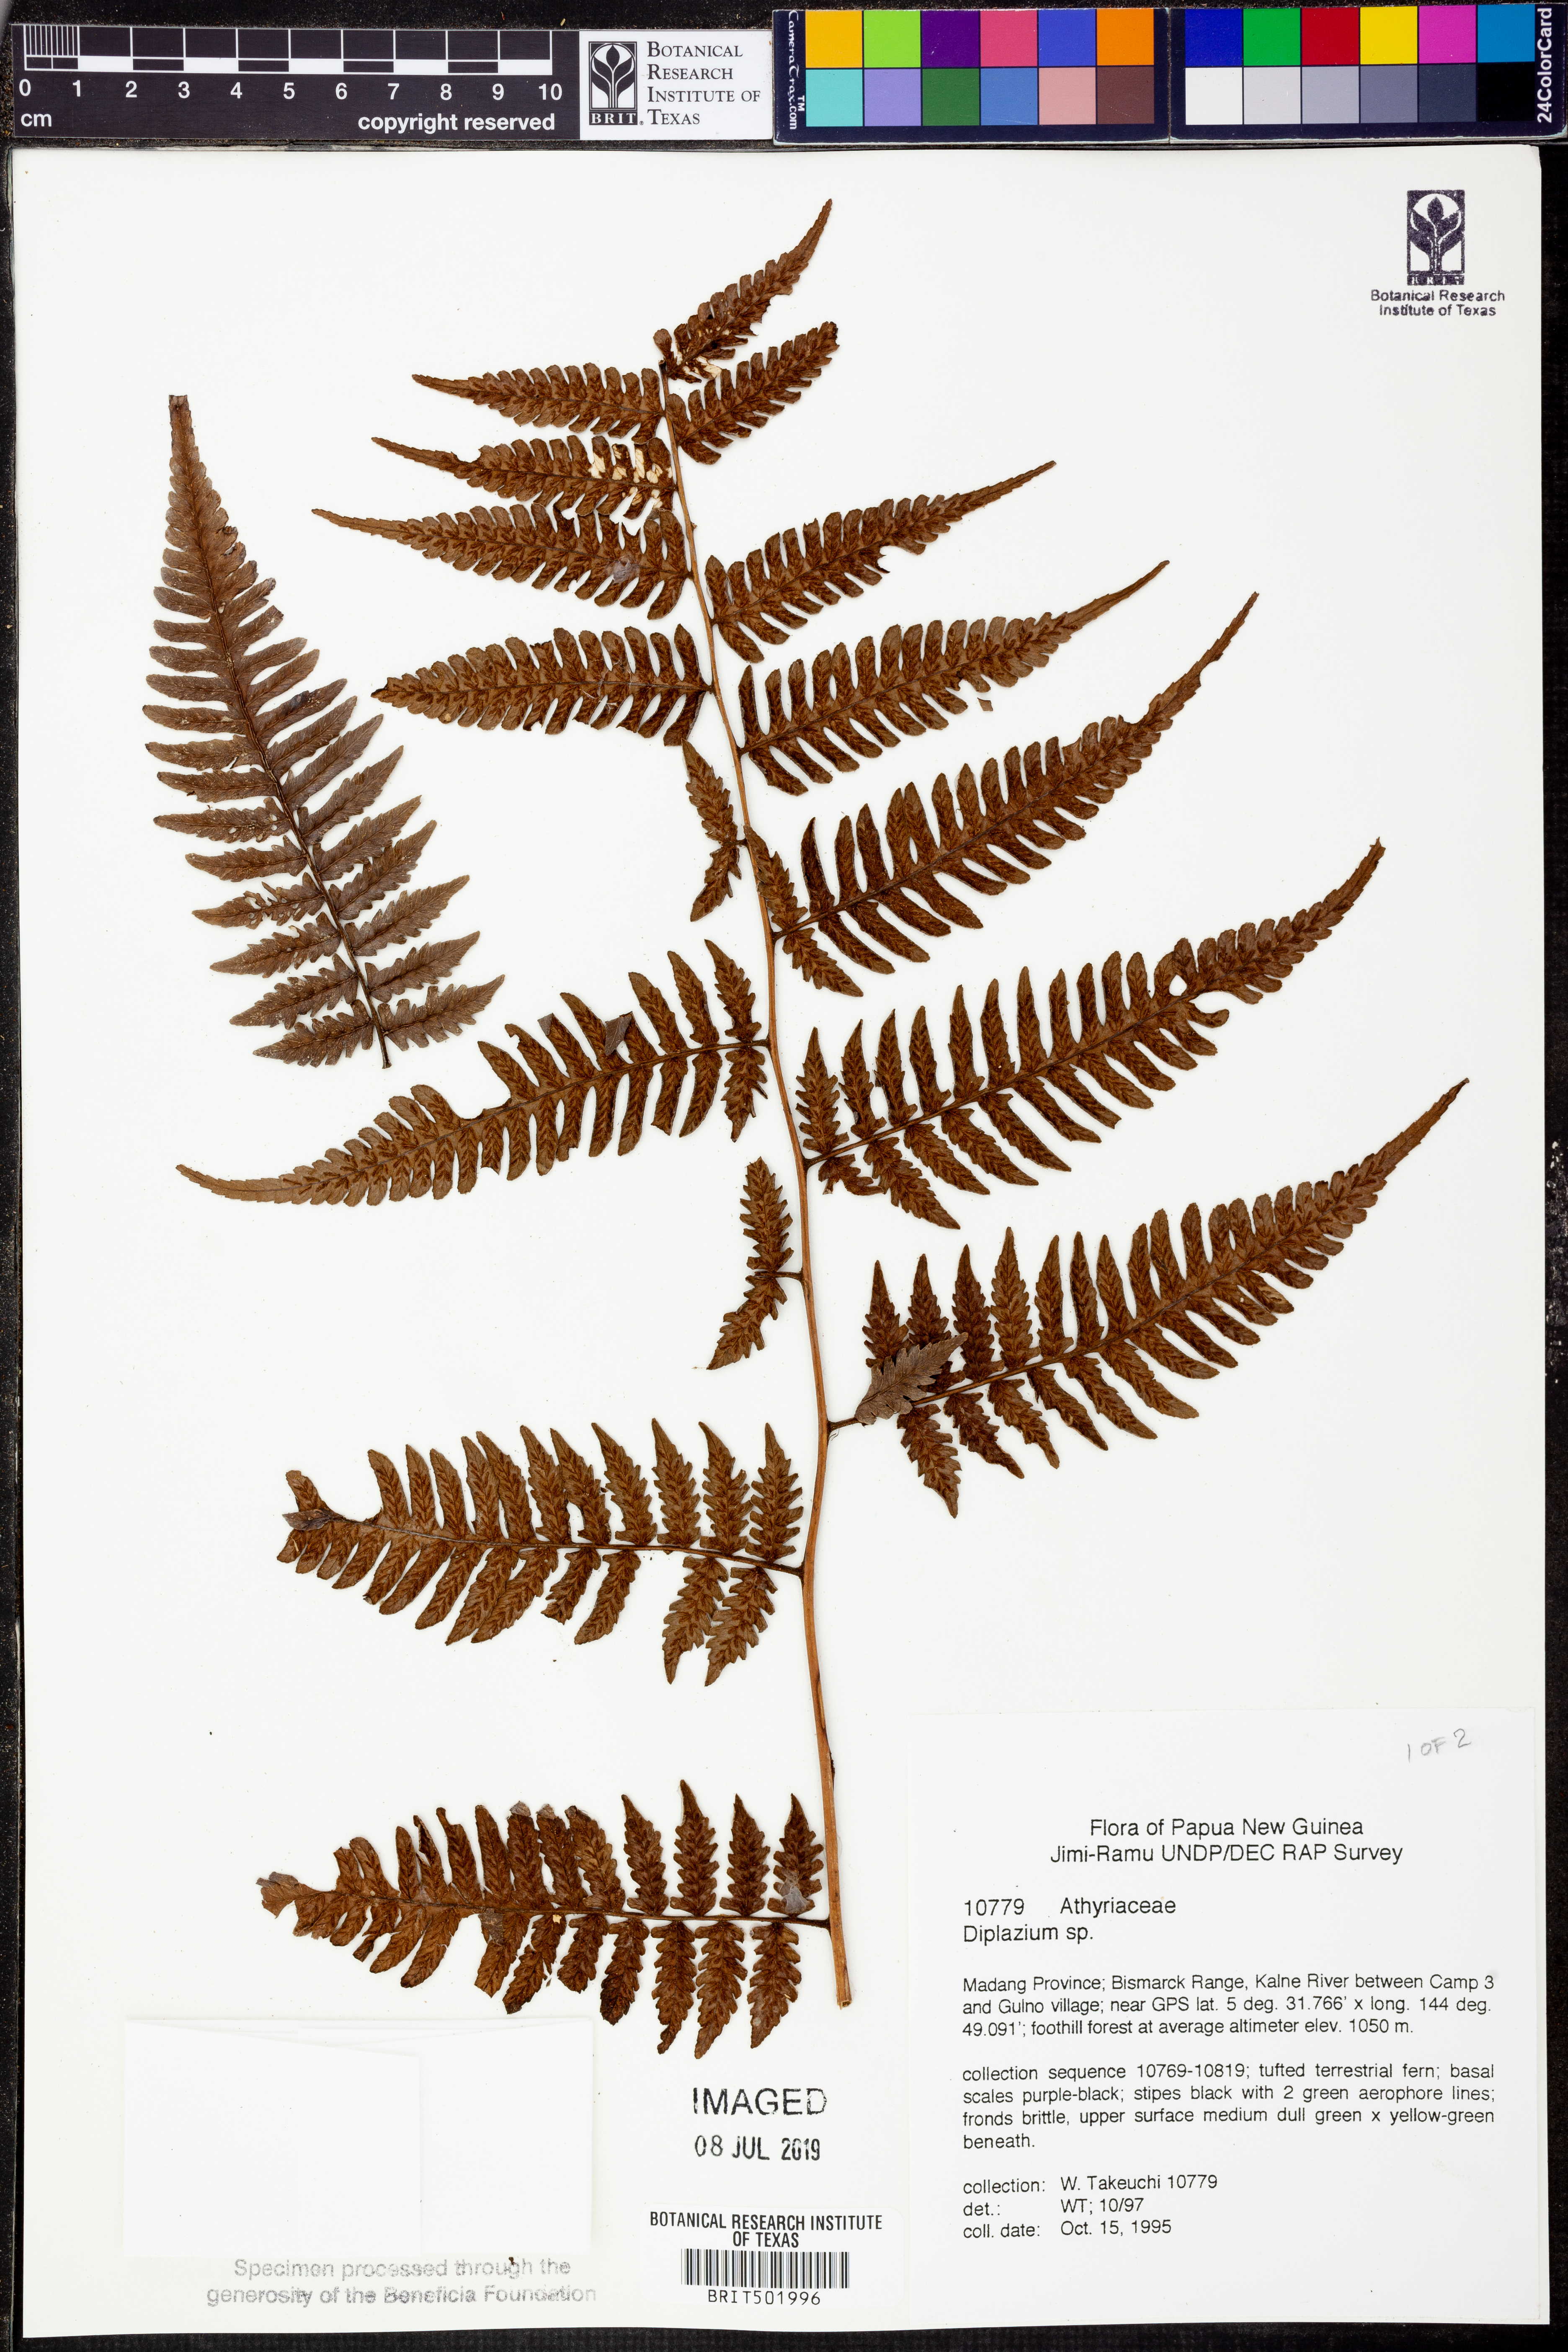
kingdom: Plantae
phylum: Tracheophyta
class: Polypodiopsida
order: Polypodiales
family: Athyriaceae
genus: Diplazium
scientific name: Diplazium
